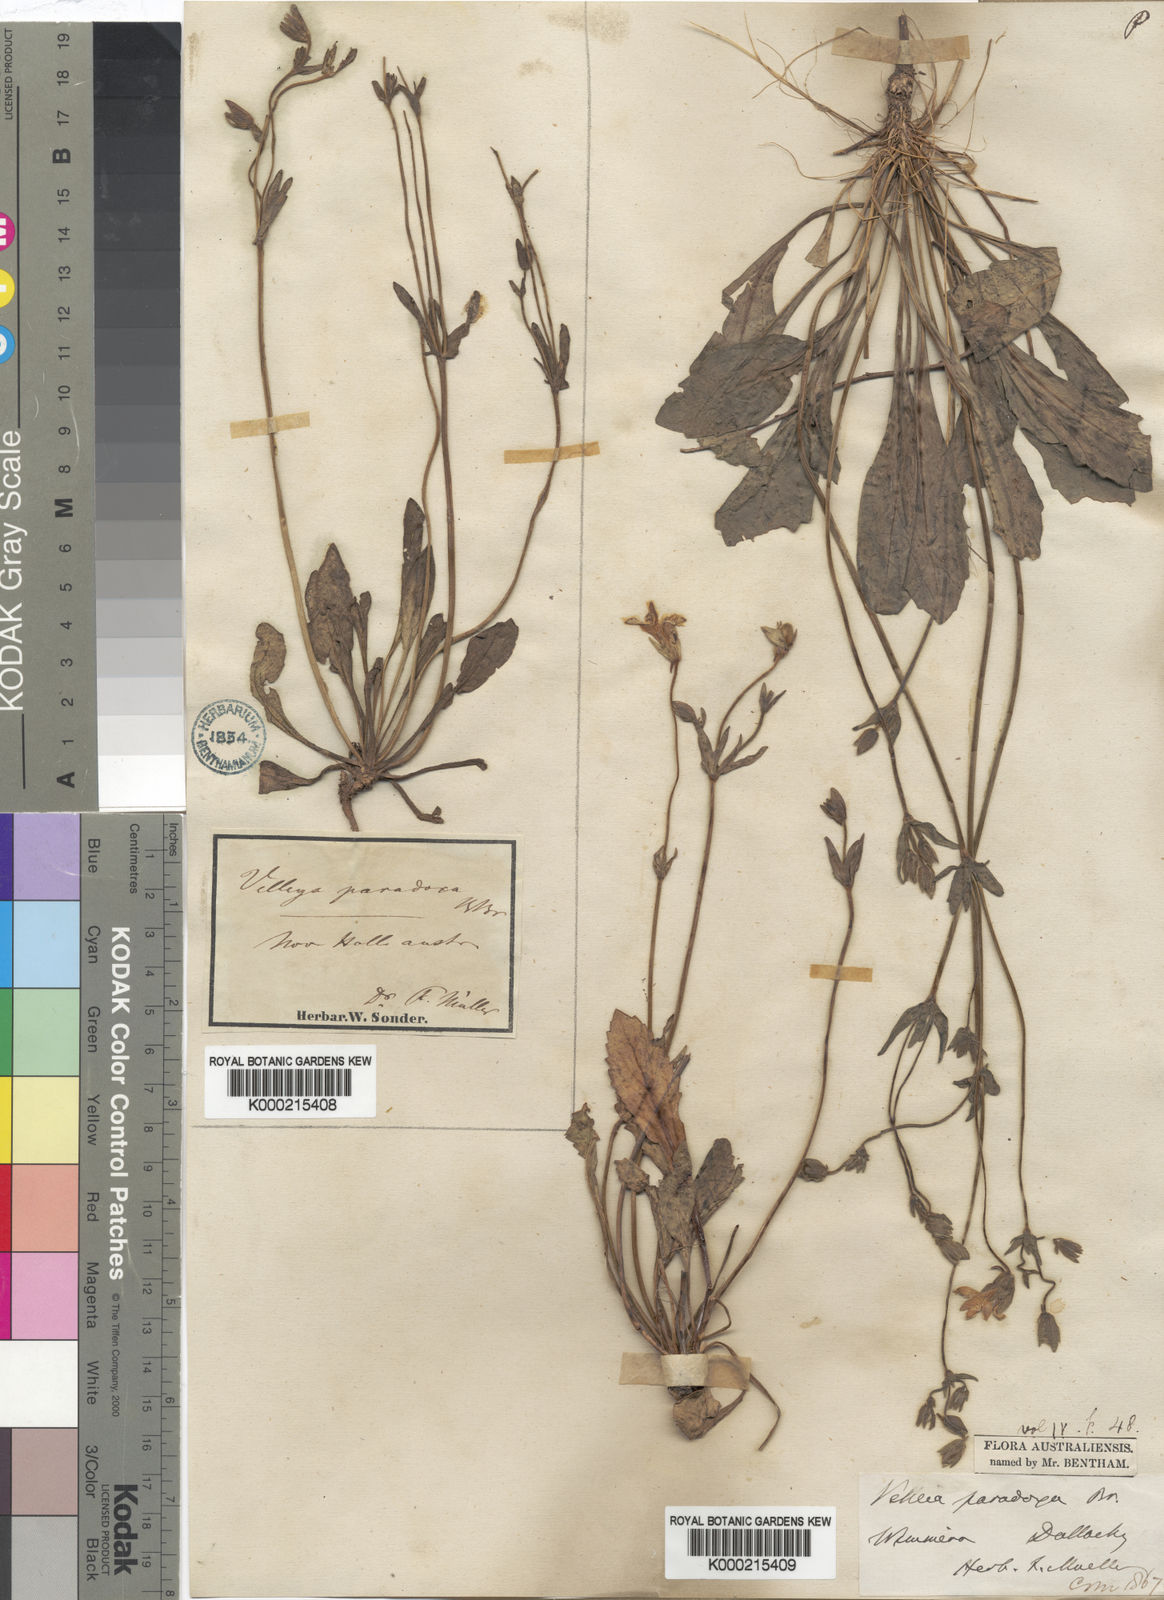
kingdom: Plantae
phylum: Tracheophyta
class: Magnoliopsida
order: Asterales
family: Goodeniaceae
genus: Goodenia
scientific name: Goodenia paradoxa
